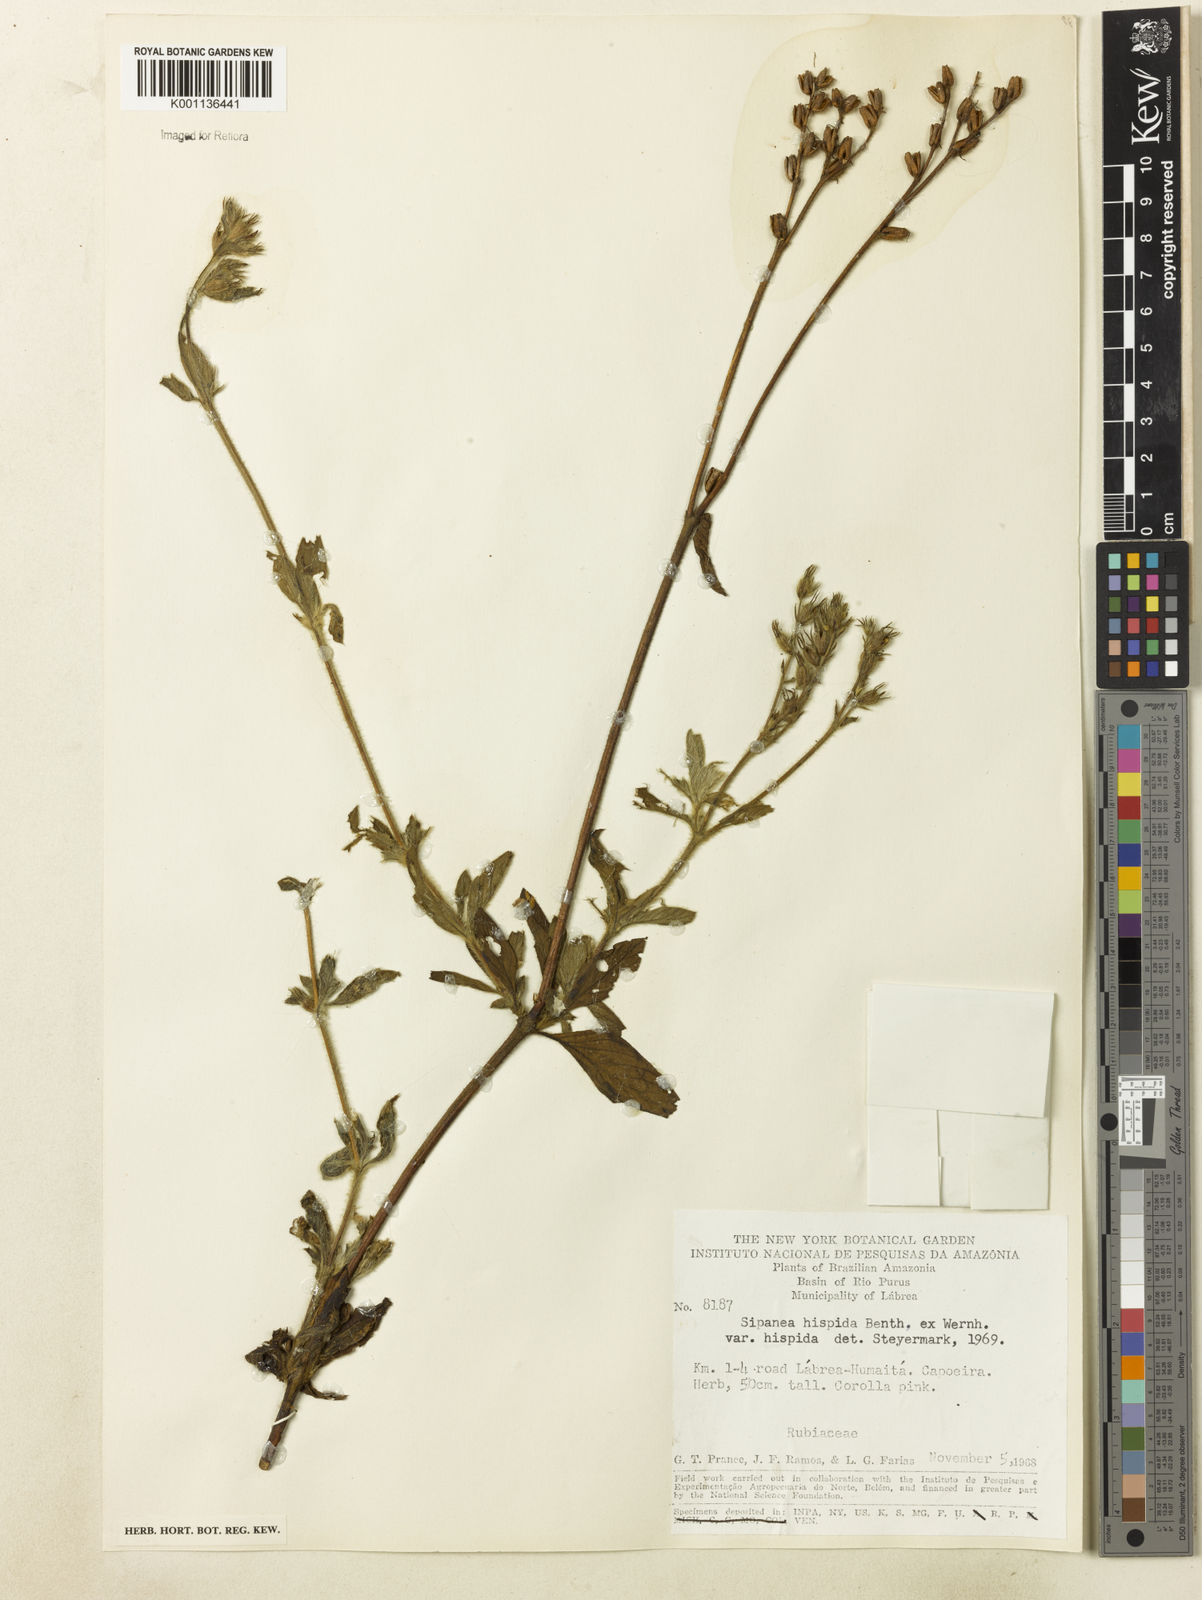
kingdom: Plantae
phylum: Tracheophyta
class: Magnoliopsida
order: Gentianales
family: Rubiaceae
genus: Sipanea
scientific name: Sipanea hispida
